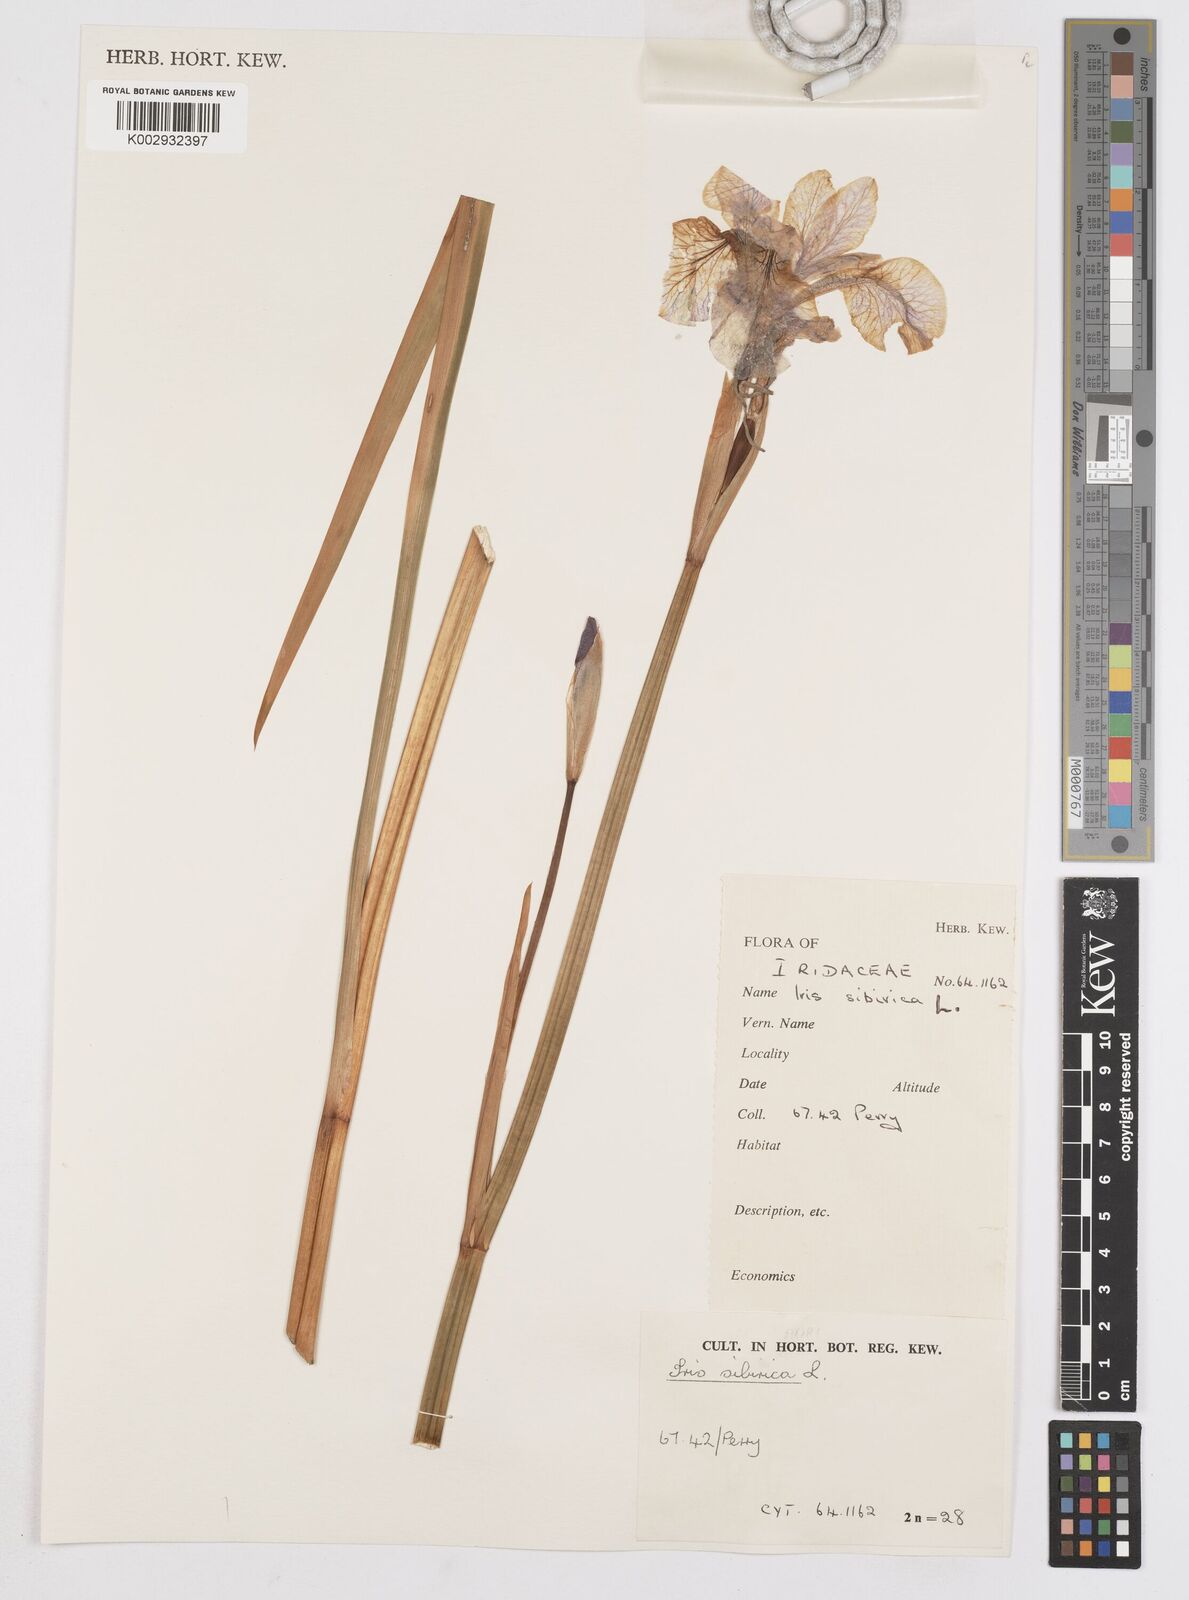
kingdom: Plantae
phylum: Tracheophyta
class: Liliopsida
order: Asparagales
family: Iridaceae
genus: Iris
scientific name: Iris sibirica
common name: Siberian iris
